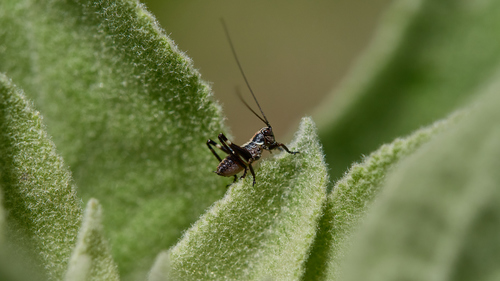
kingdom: Animalia
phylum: Arthropoda
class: Insecta
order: Orthoptera
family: Tettigoniidae
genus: Antaxius
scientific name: Antaxius
